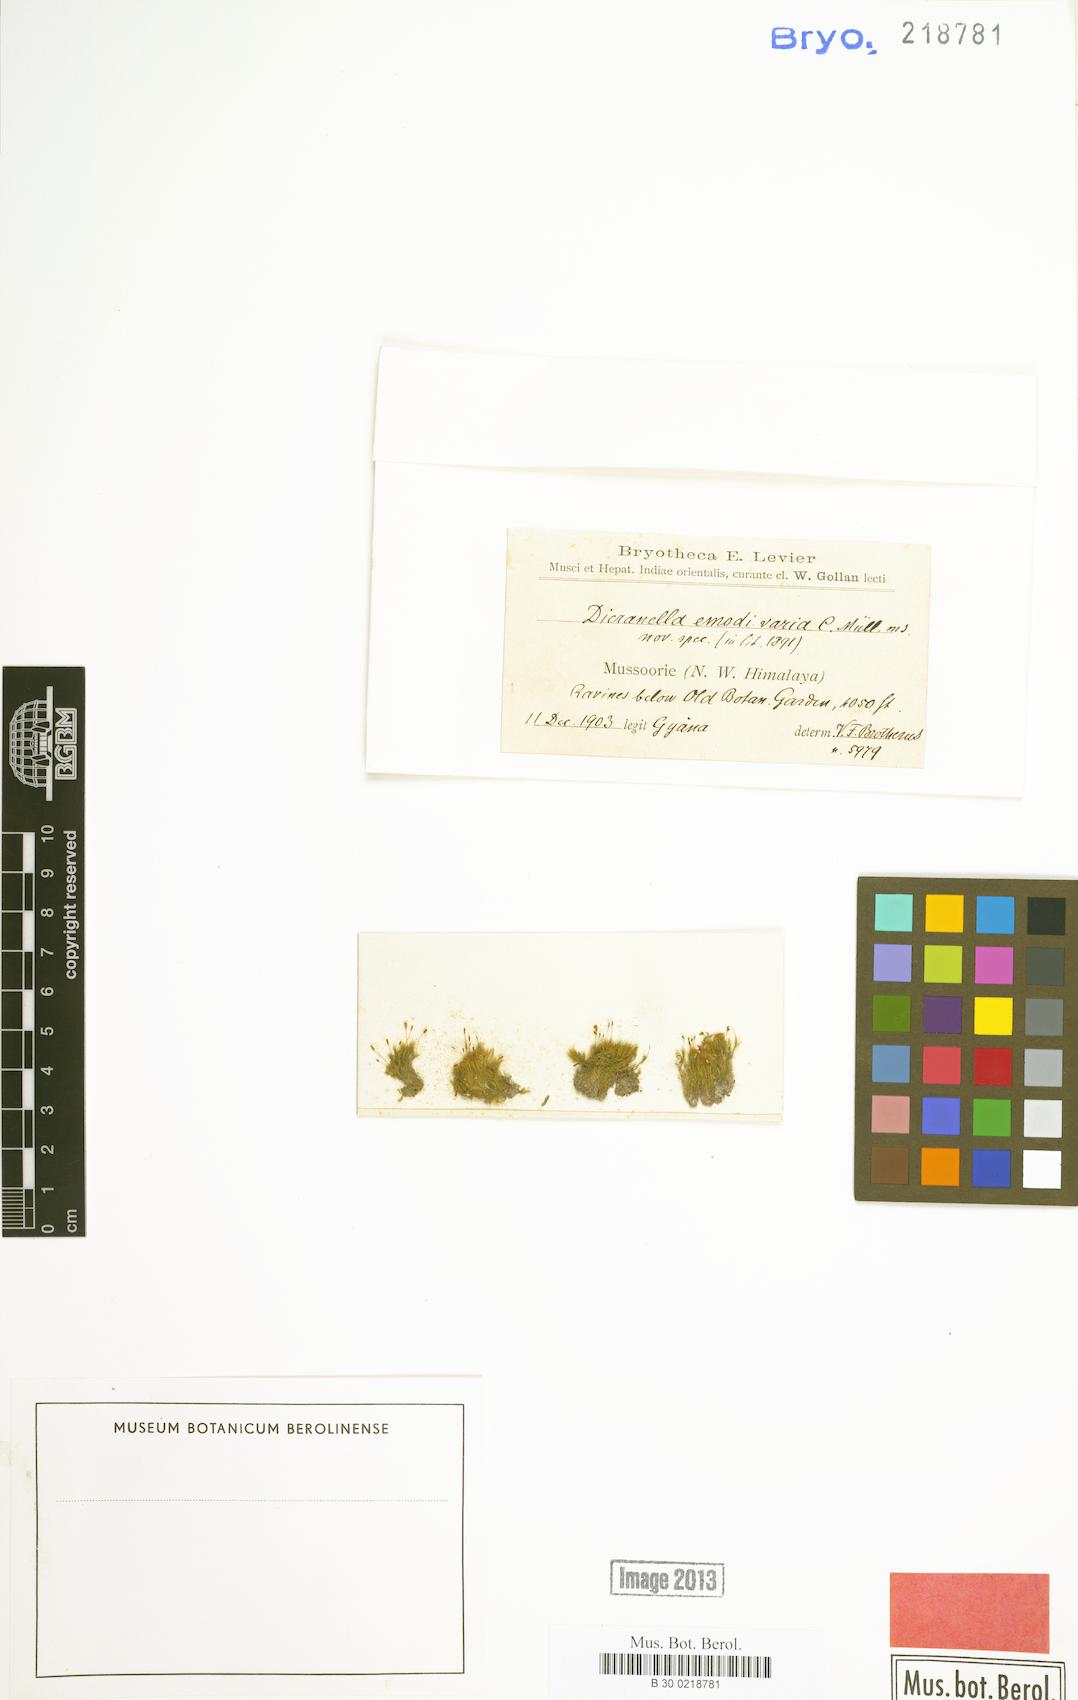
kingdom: Plantae
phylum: Bryophyta
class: Bryopsida
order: Dicranales
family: Dicranellaceae
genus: Dicranella
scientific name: Dicranella emodi-varia
